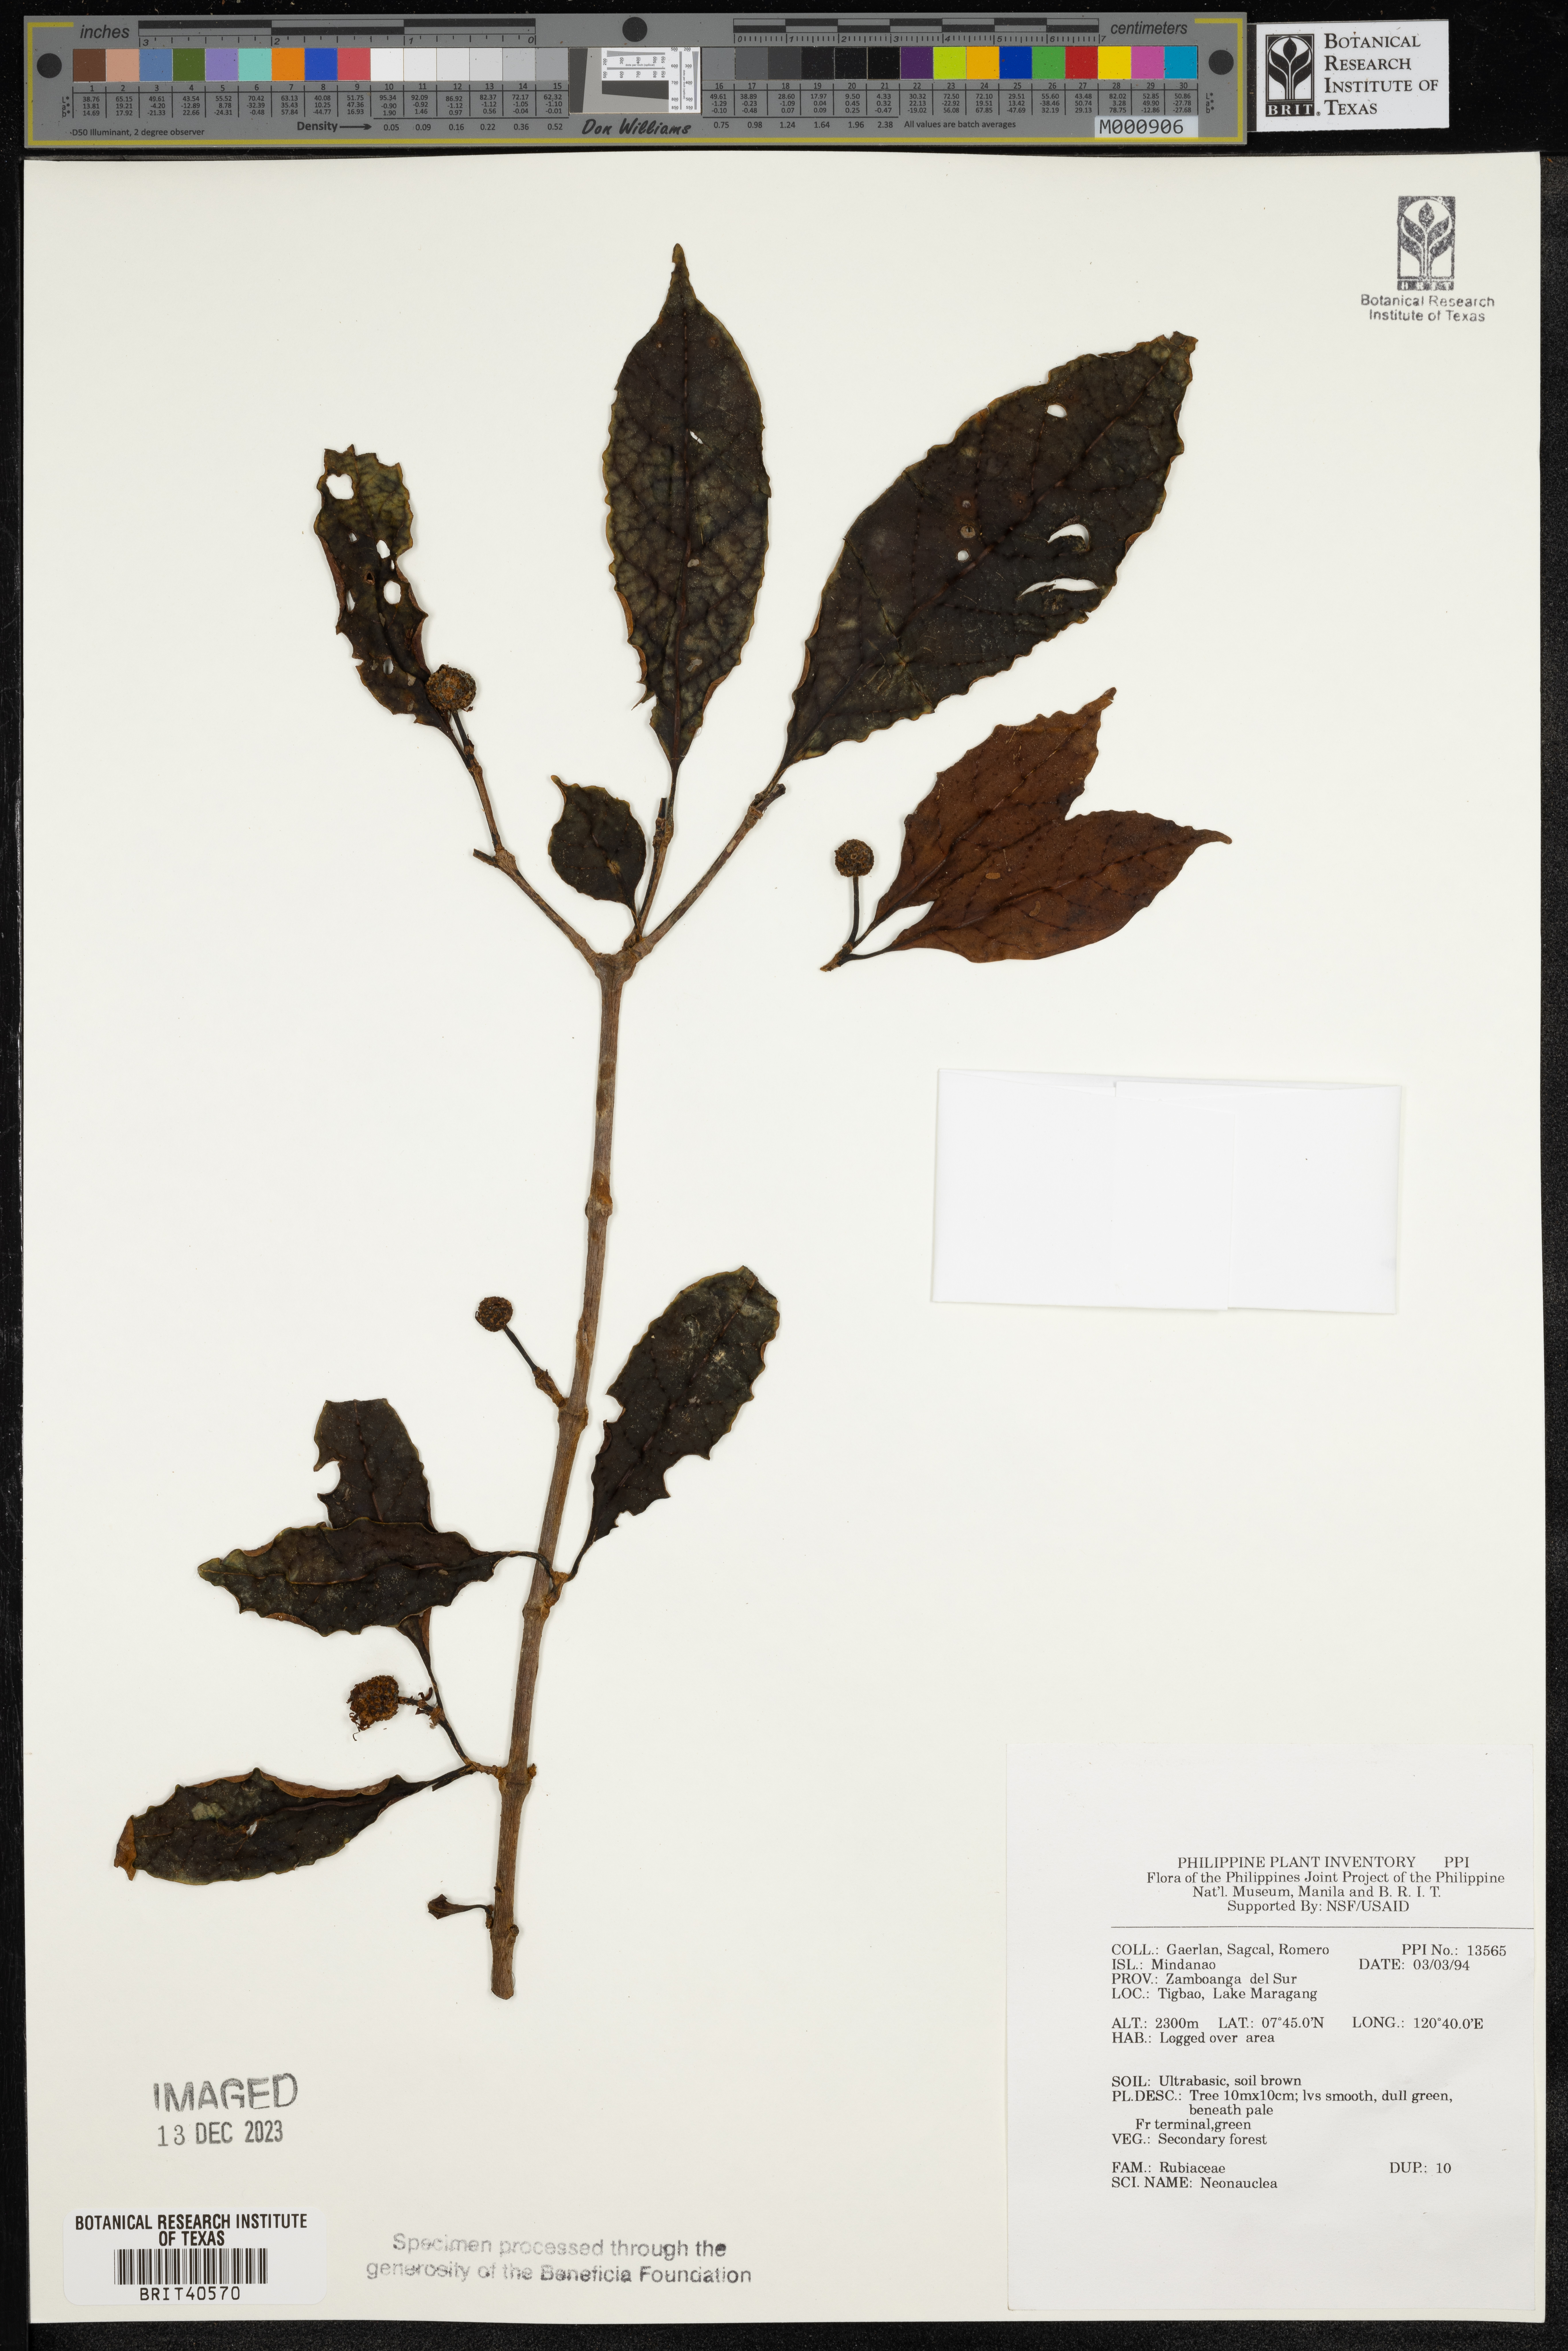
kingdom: Plantae
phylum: Tracheophyta
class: Magnoliopsida
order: Gentianales
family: Rubiaceae
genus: Neonauclea
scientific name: Neonauclea
